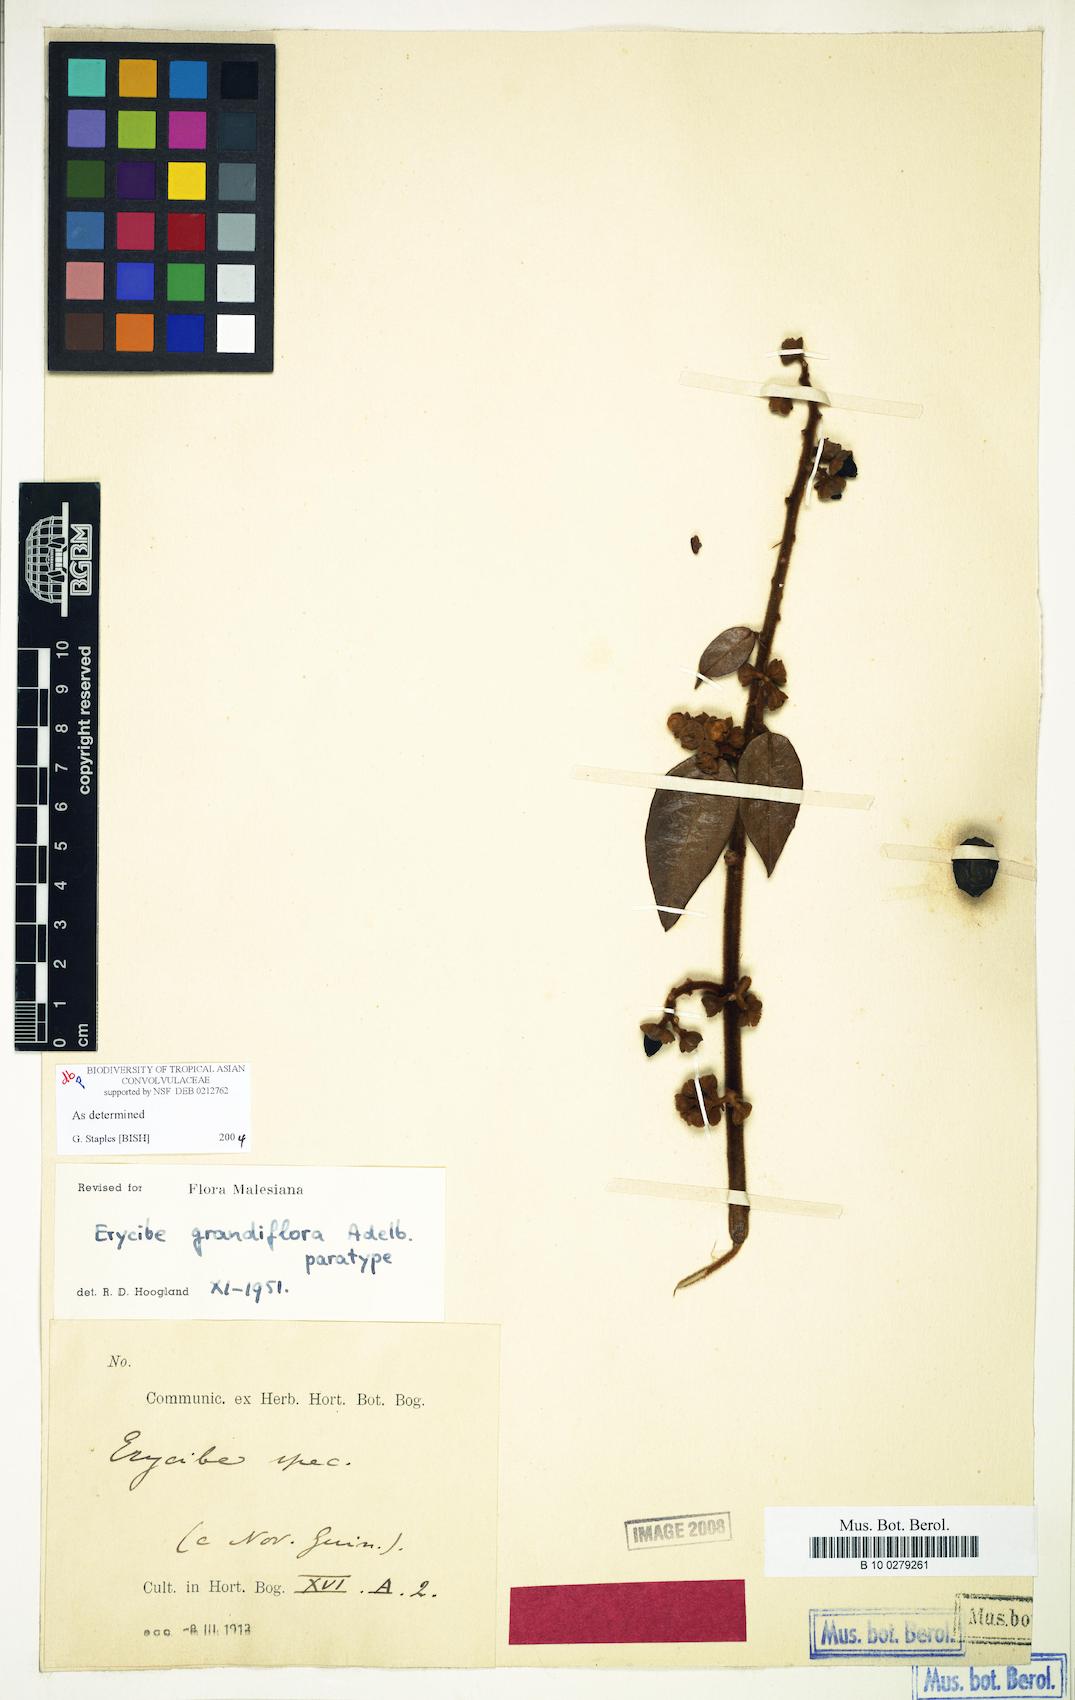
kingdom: Plantae
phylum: Tracheophyta
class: Magnoliopsida
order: Solanales
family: Convolvulaceae
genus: Erycibe
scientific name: Erycibe grandiflora
